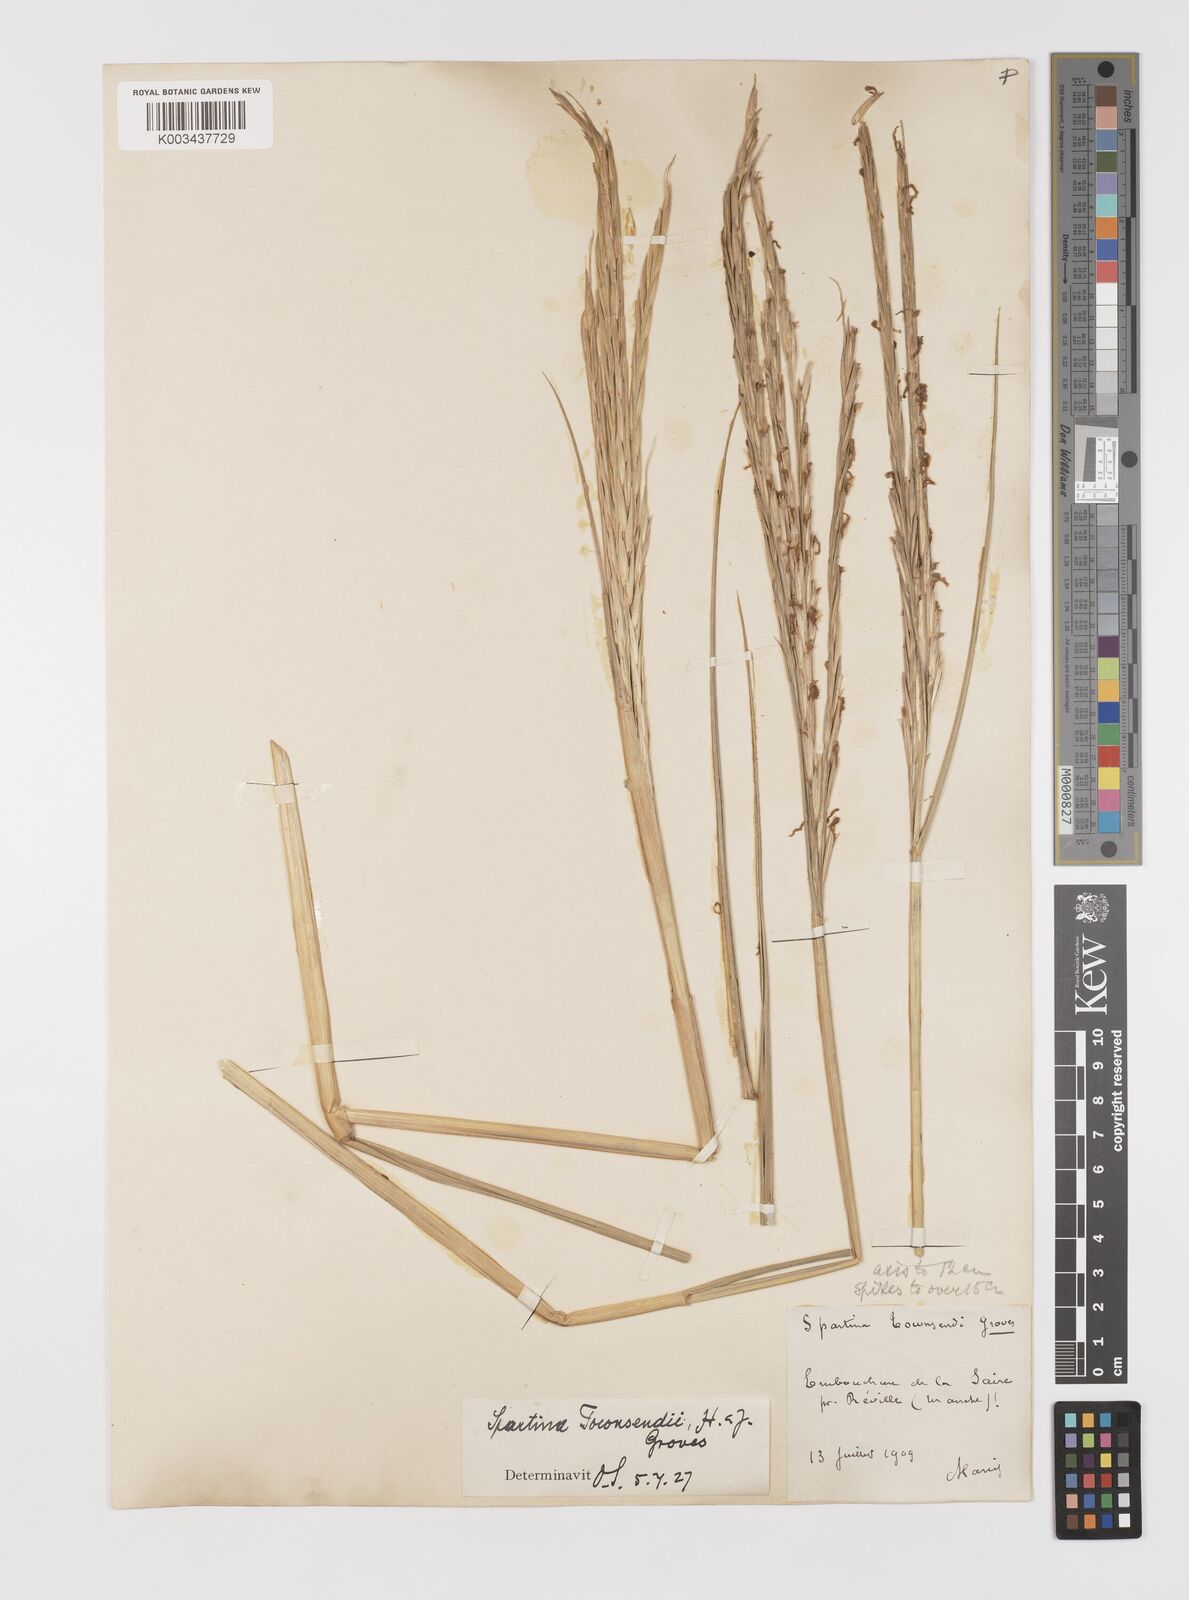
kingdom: Plantae
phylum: Tracheophyta
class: Liliopsida
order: Poales
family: Poaceae
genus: Sporobolus
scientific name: Sporobolus anglicus
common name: English cordgrass
